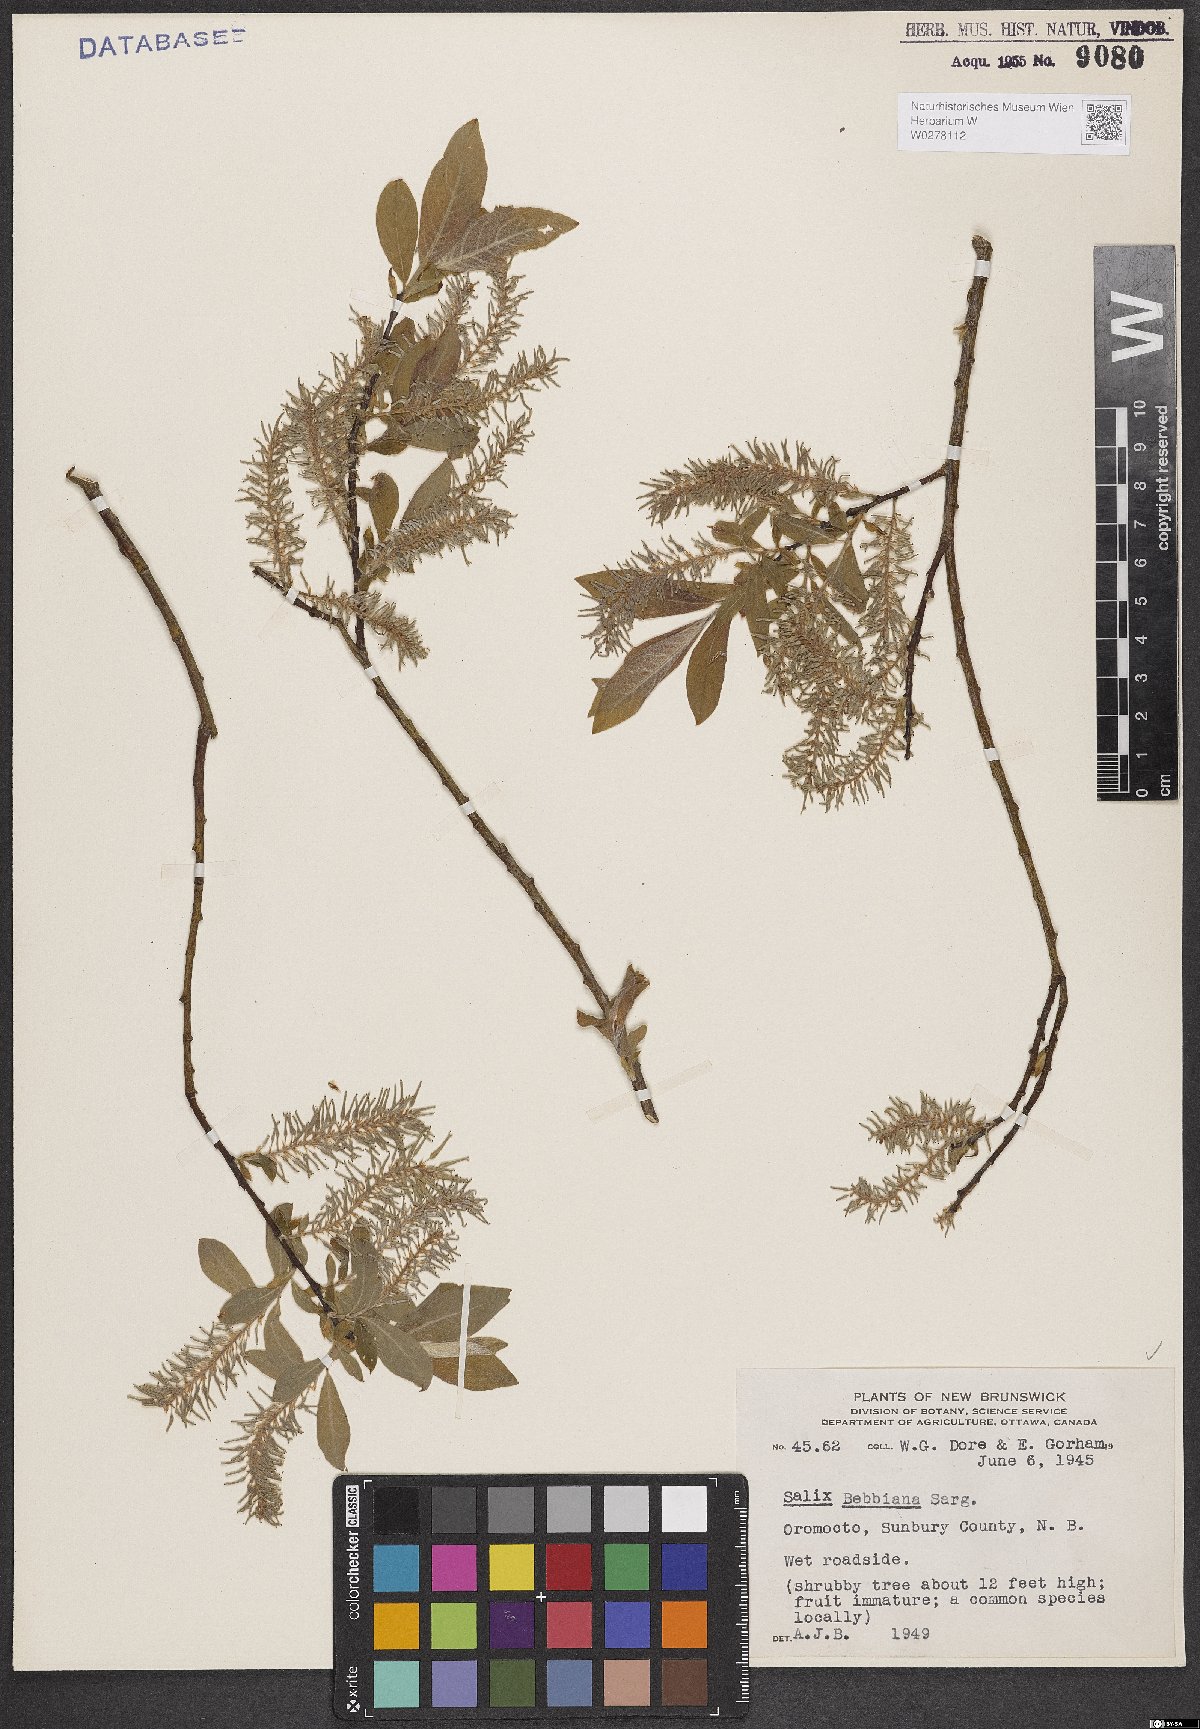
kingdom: Plantae
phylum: Tracheophyta
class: Magnoliopsida
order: Malpighiales
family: Salicaceae
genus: Salix
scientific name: Salix bebbiana
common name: Bebb's willow
